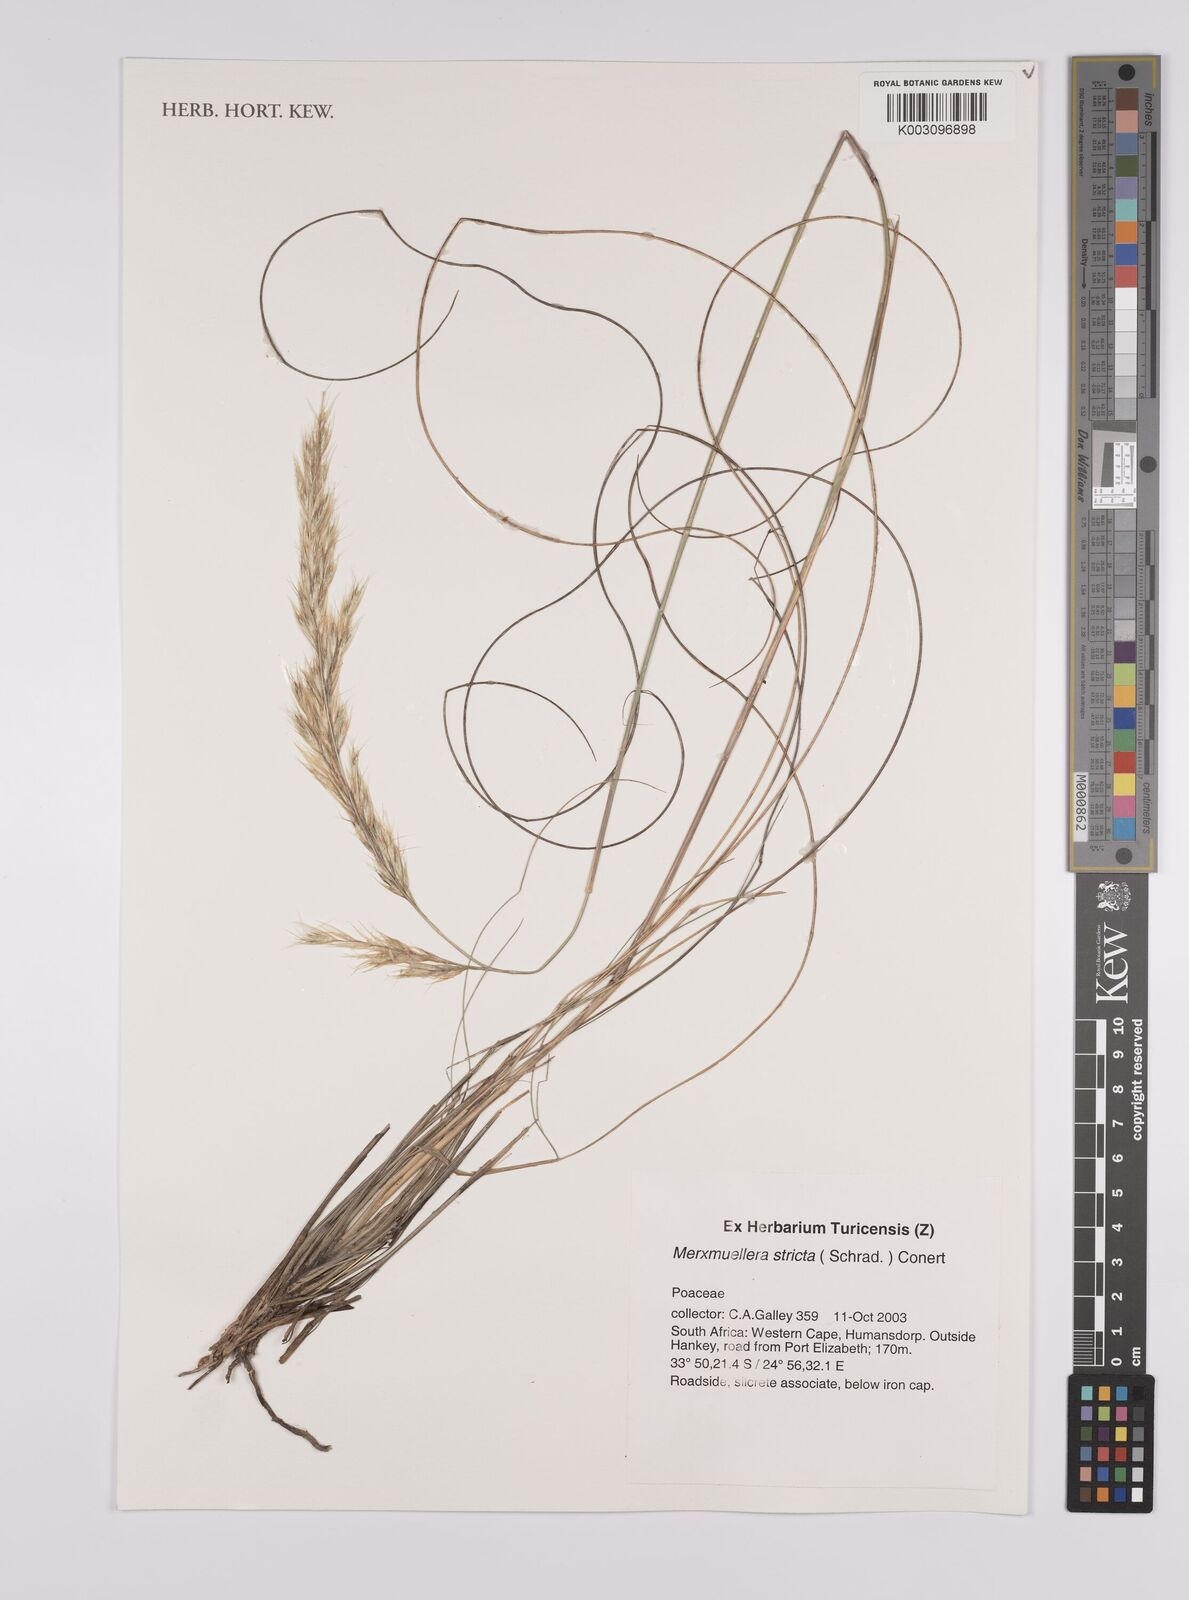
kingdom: Plantae
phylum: Tracheophyta
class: Liliopsida
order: Poales
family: Poaceae
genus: Rytidosperma
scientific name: Rytidosperma australe
